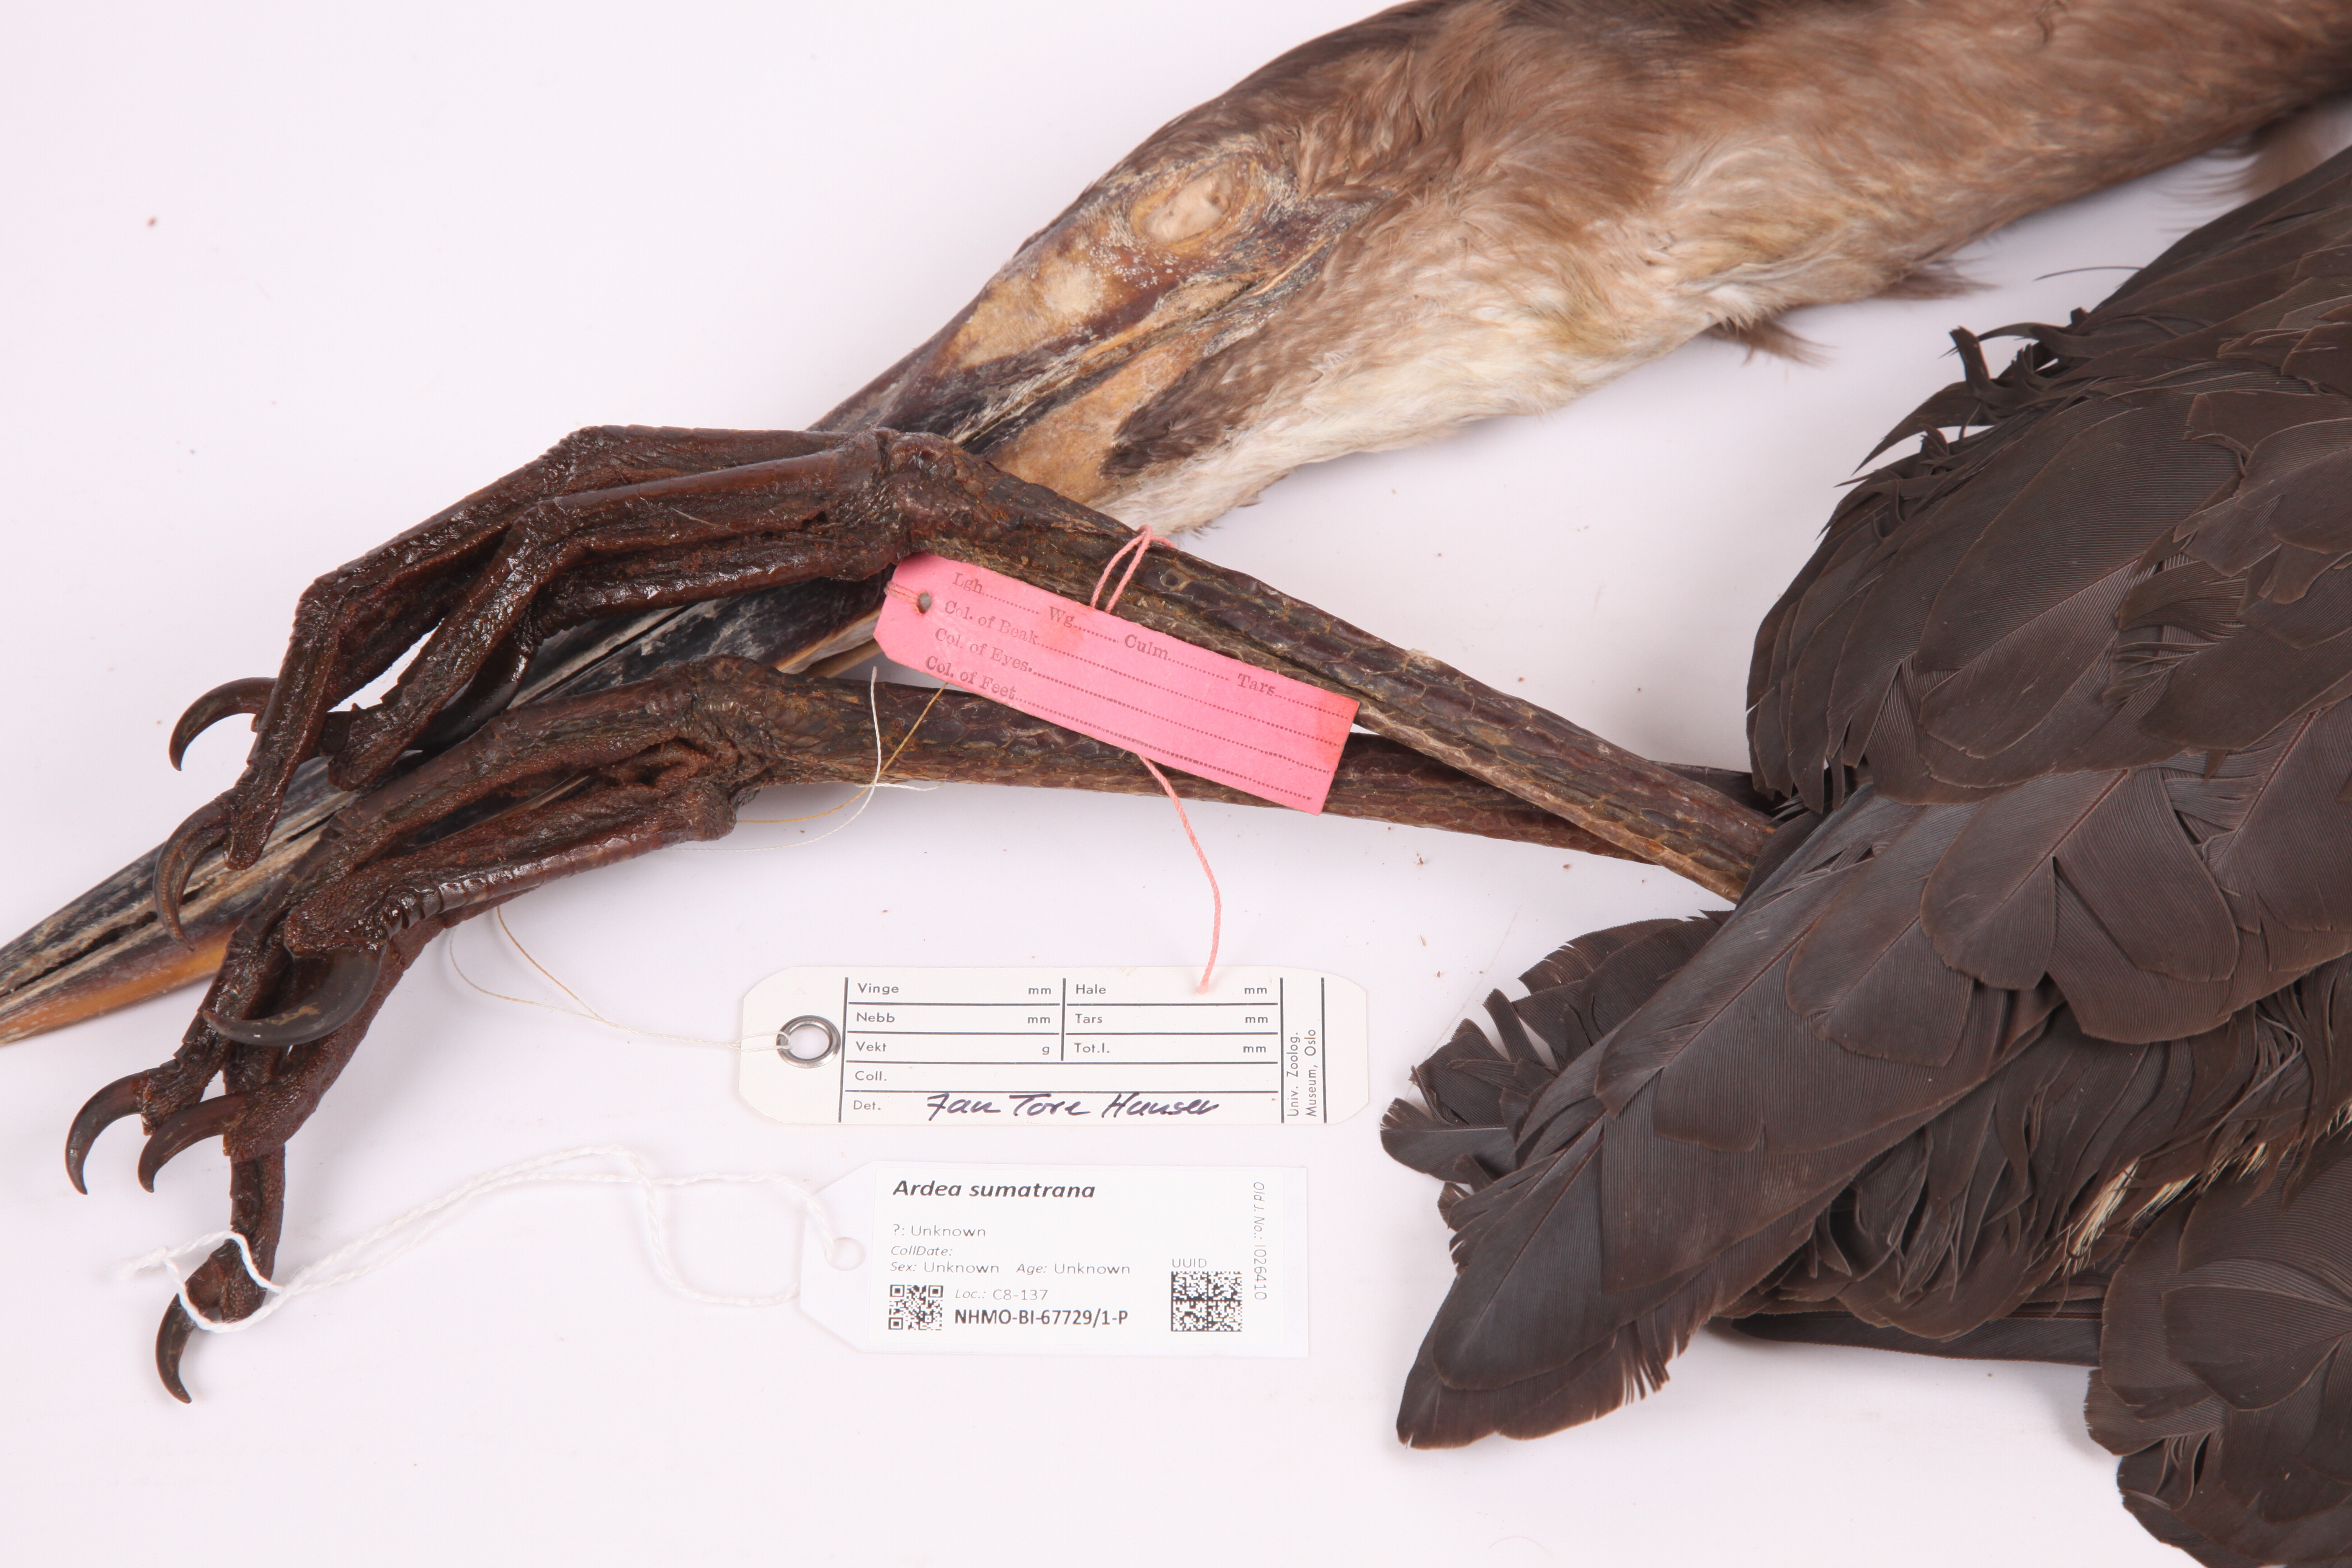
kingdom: Animalia
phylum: Chordata
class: Aves
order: Pelecaniformes
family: Ardeidae
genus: Ardea
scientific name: Ardea sumatrana
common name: Great-billed heron
